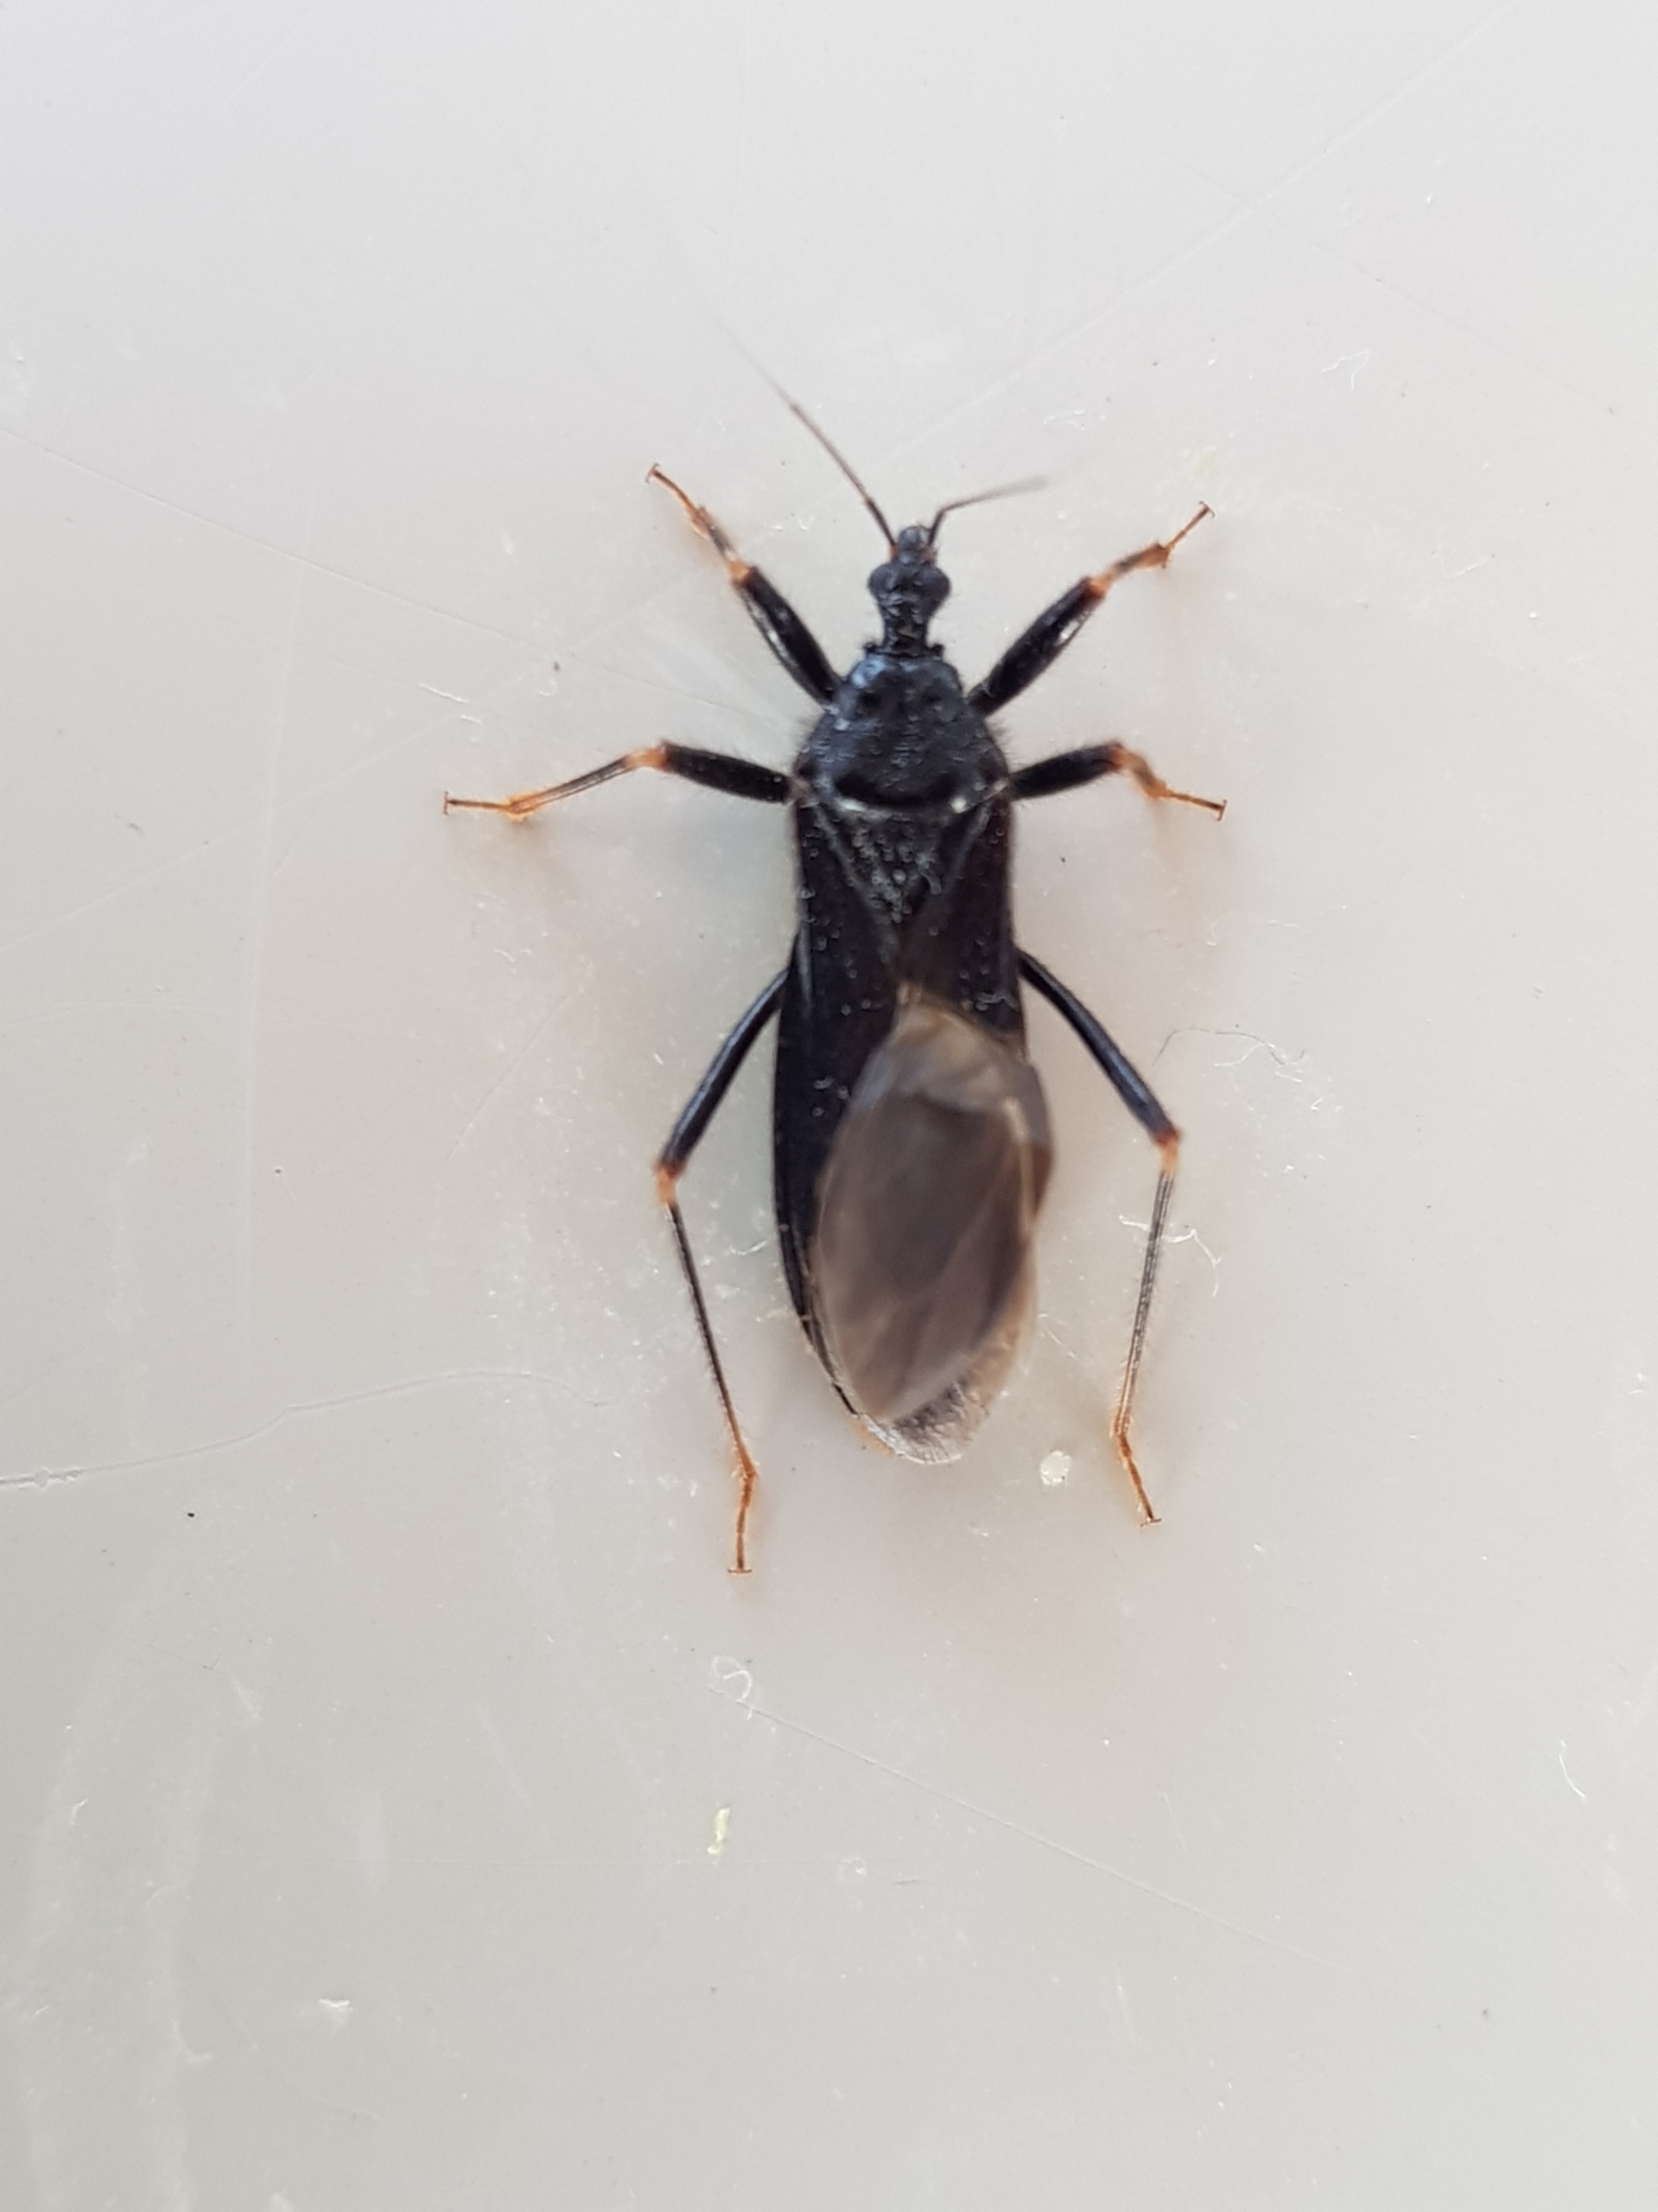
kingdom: Animalia
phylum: Arthropoda
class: Insecta
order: Hemiptera
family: Reduviidae
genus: Reduvius
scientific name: Reduvius personatus
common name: Skarntæge
